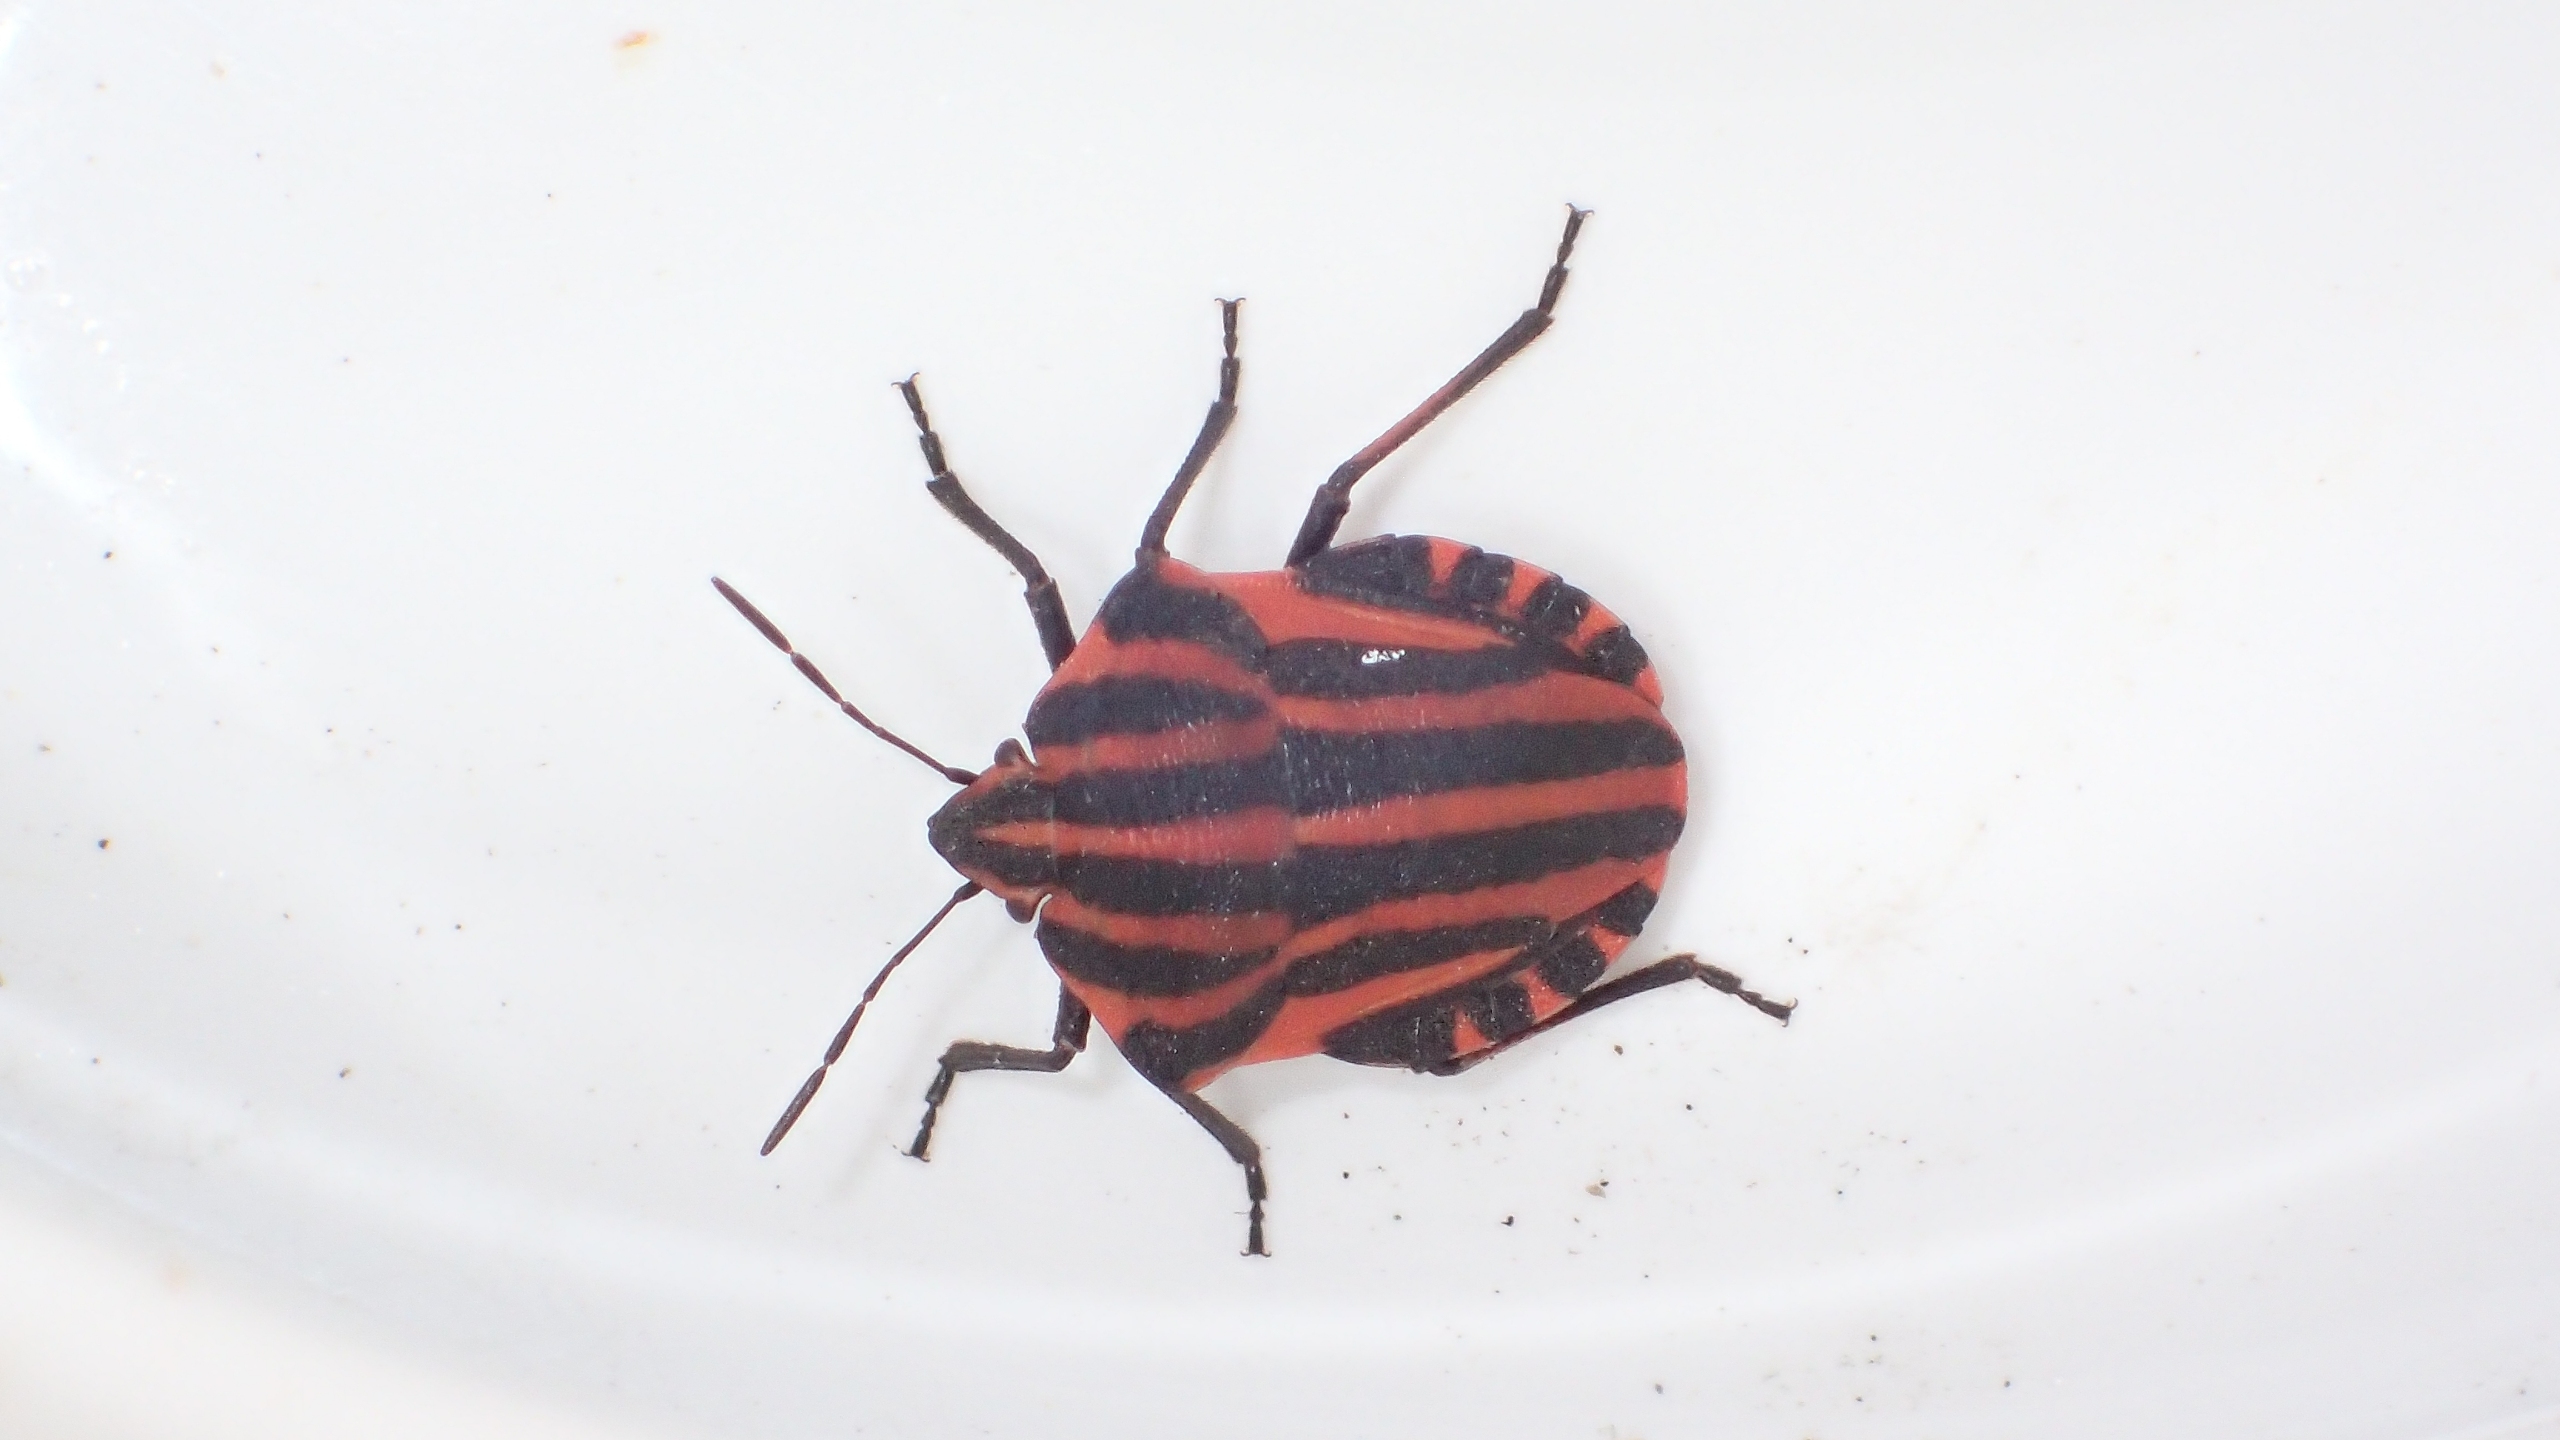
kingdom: Animalia
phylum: Arthropoda
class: Insecta
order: Hemiptera
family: Pentatomidae
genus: Graphosoma
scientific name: Graphosoma italicum
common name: Stribetæge
